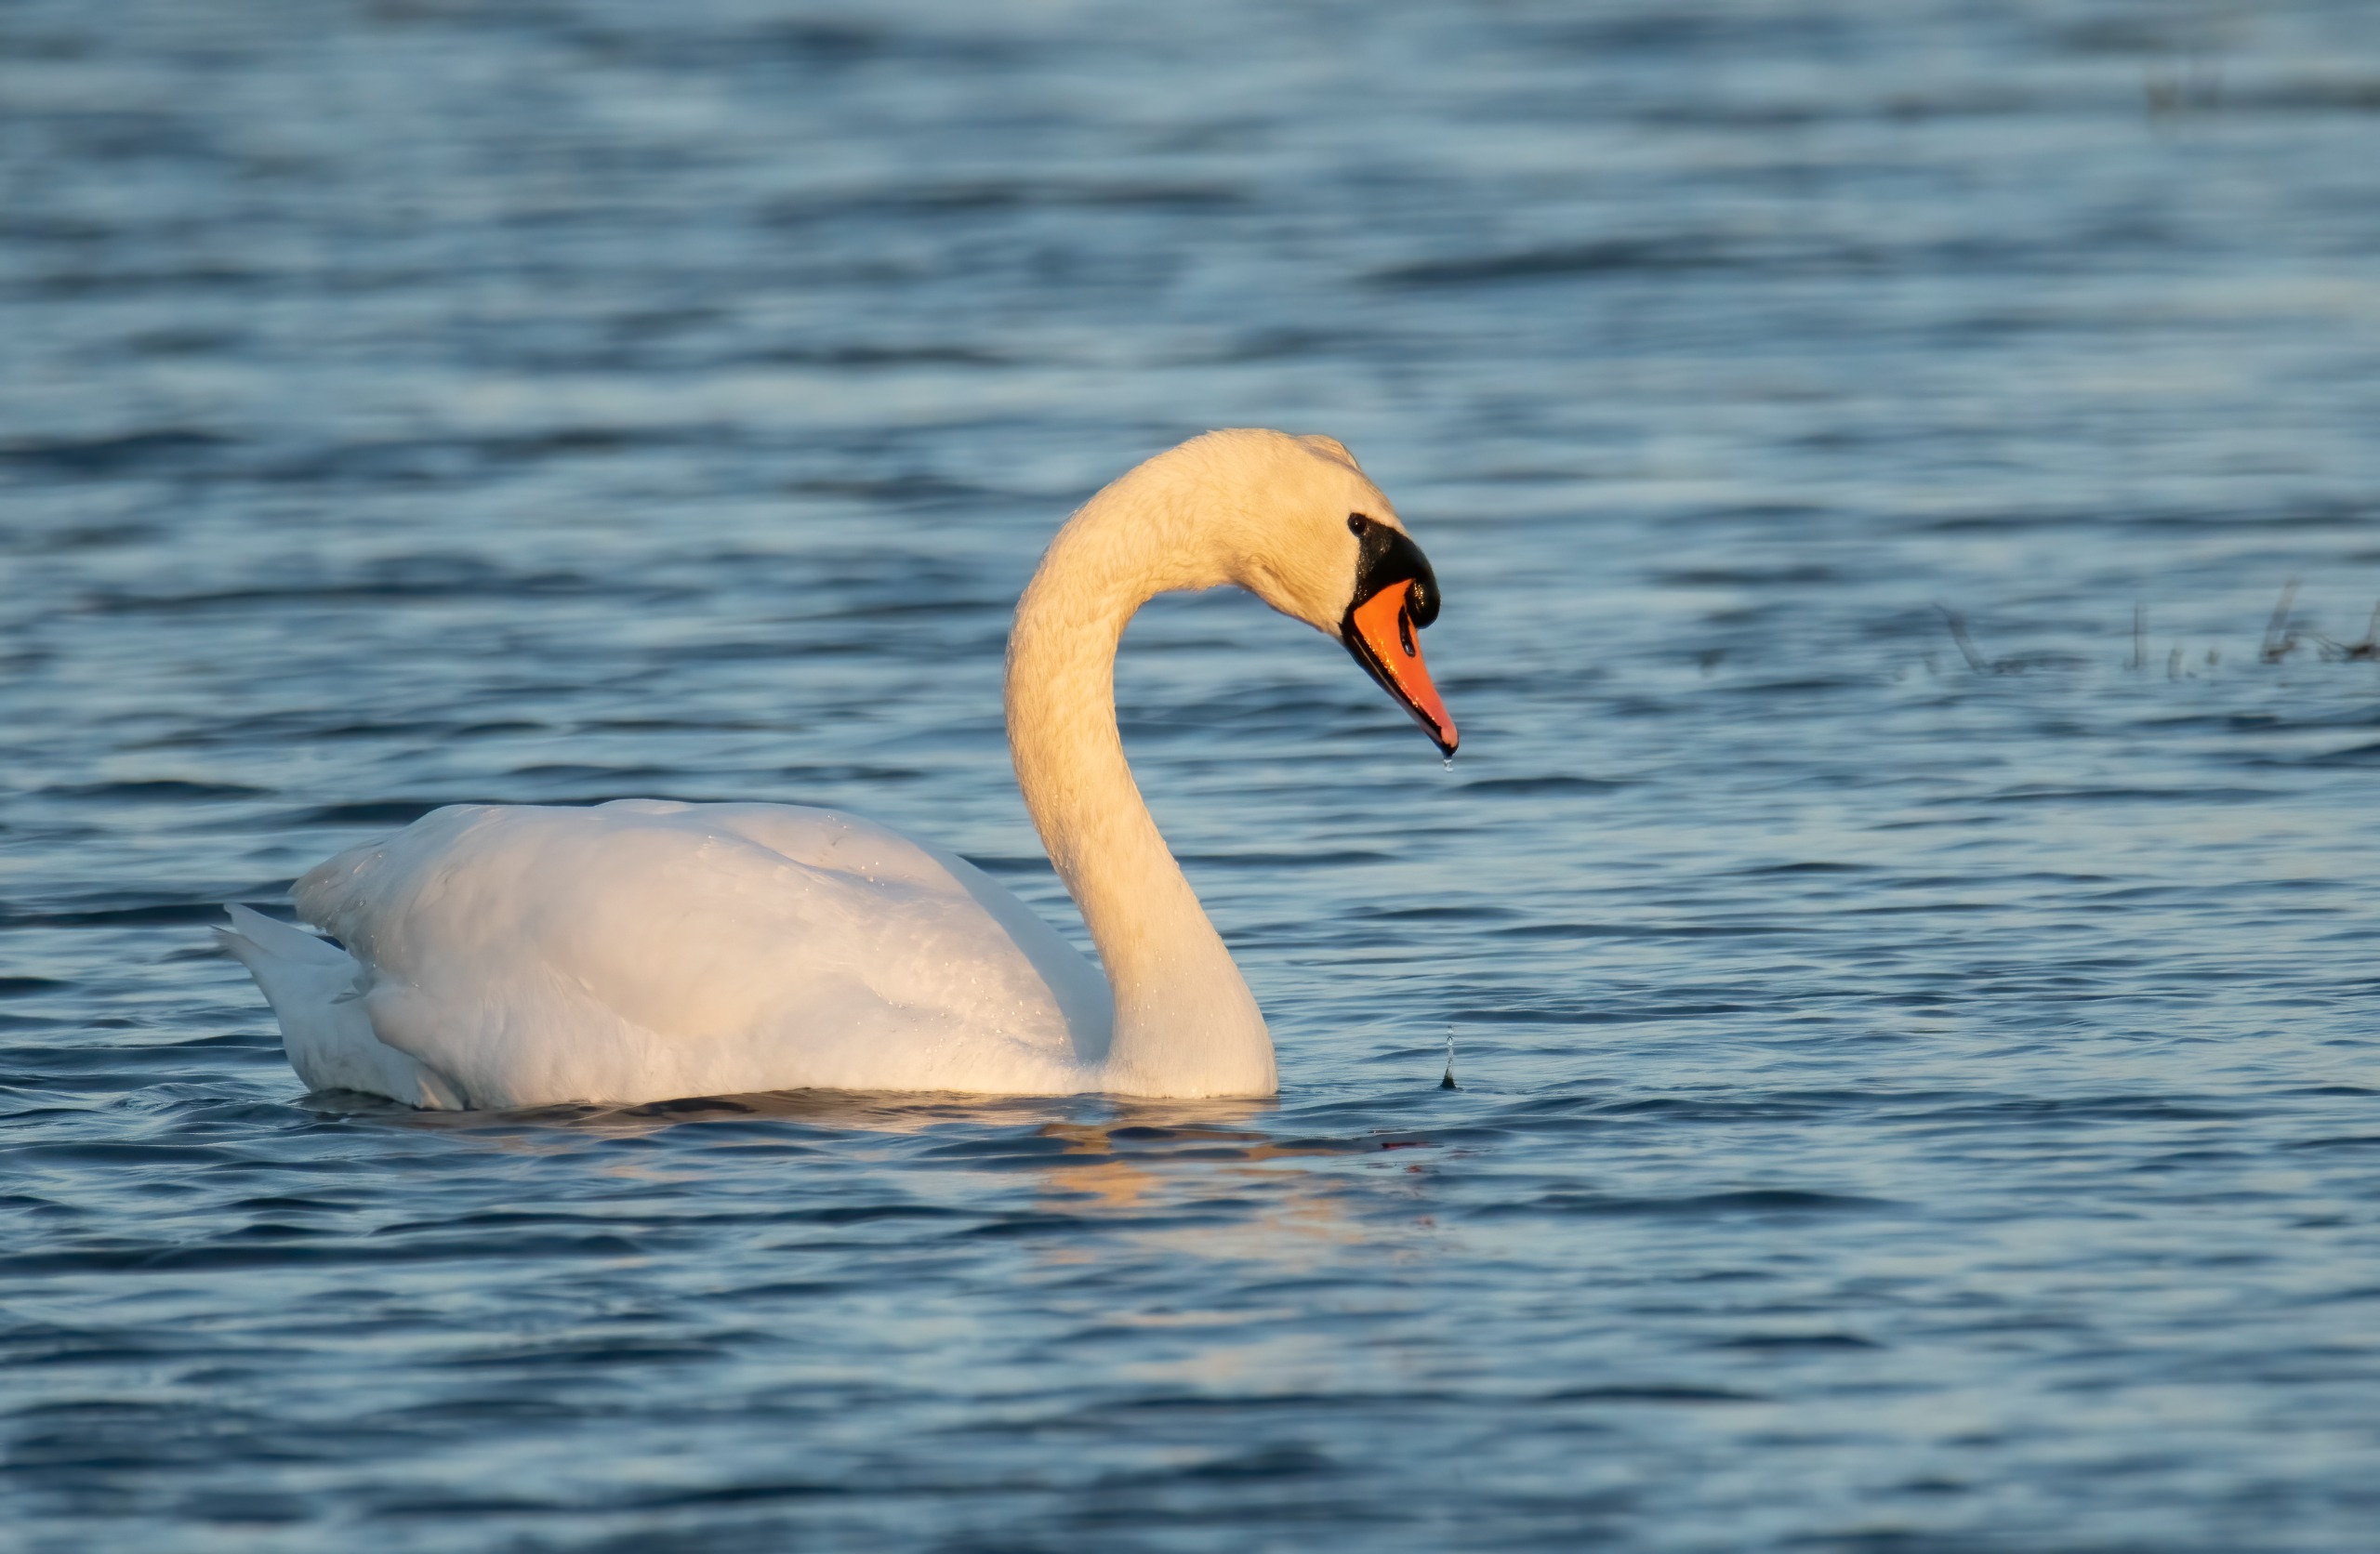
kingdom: Animalia
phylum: Chordata
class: Aves
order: Anseriformes
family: Anatidae
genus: Cygnus
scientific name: Cygnus olor
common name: Knopsvane
